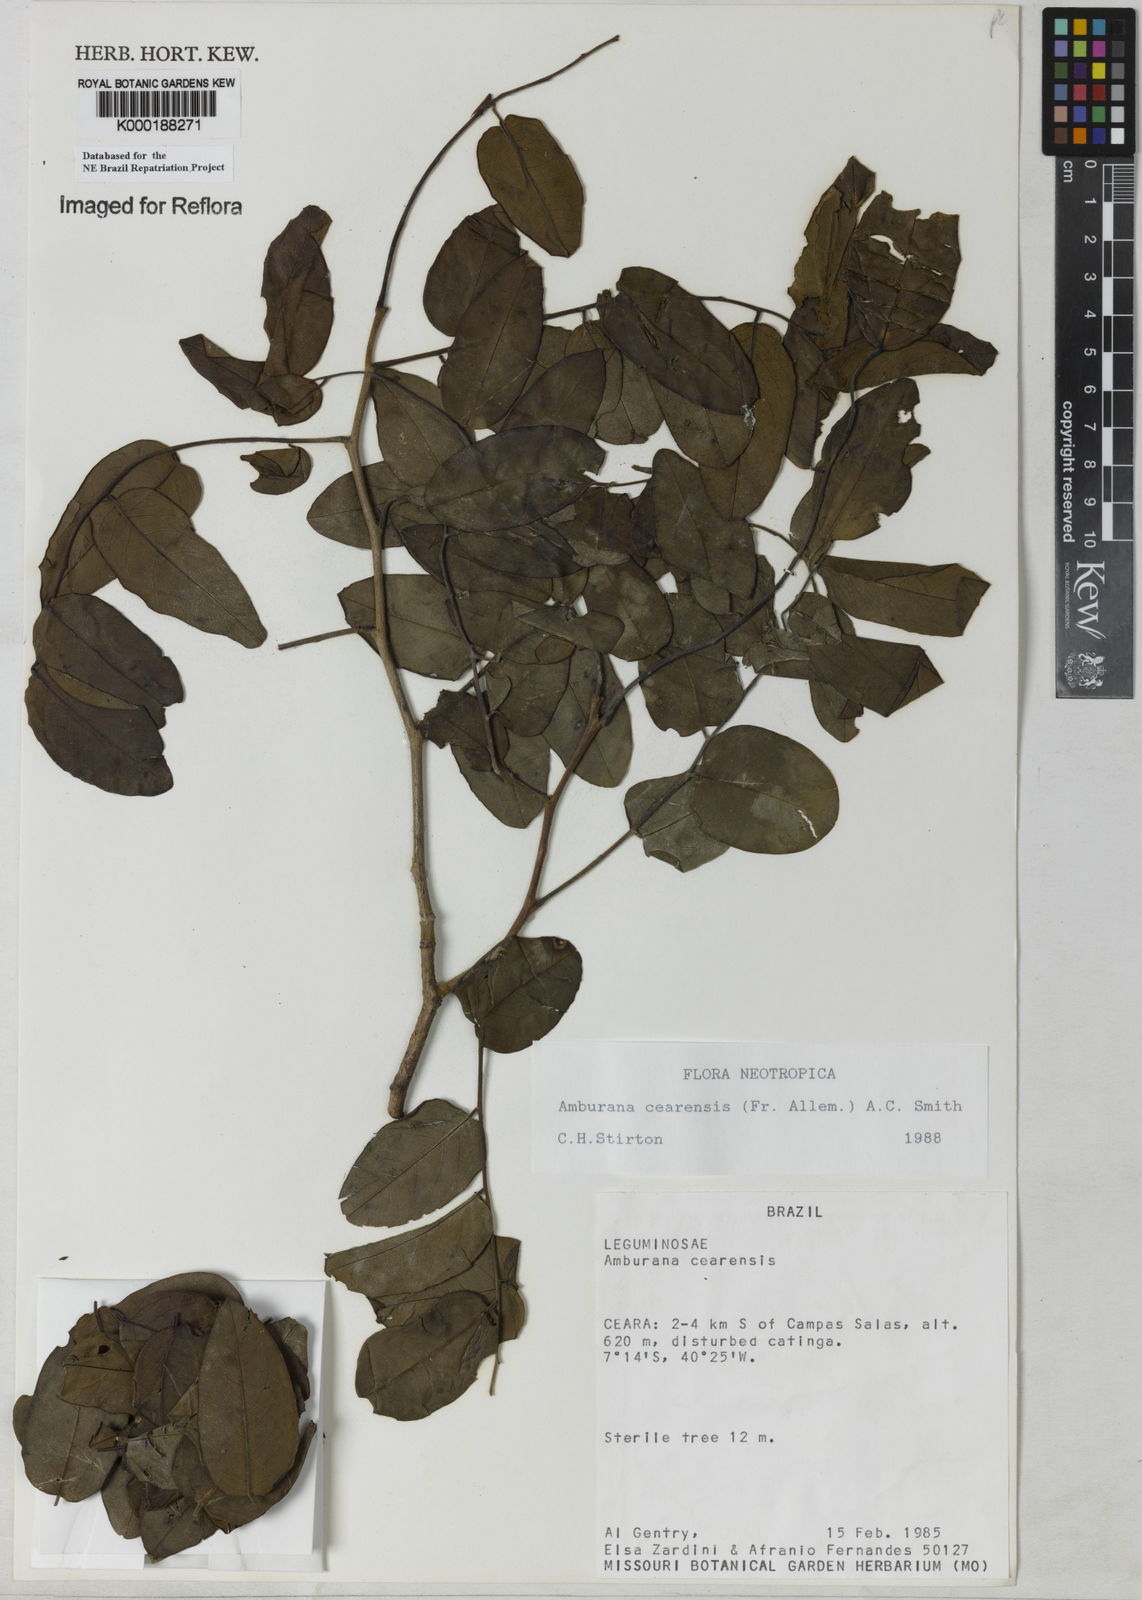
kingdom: Plantae
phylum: Tracheophyta
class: Magnoliopsida
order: Fabales
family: Fabaceae
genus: Amburana
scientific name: Amburana
